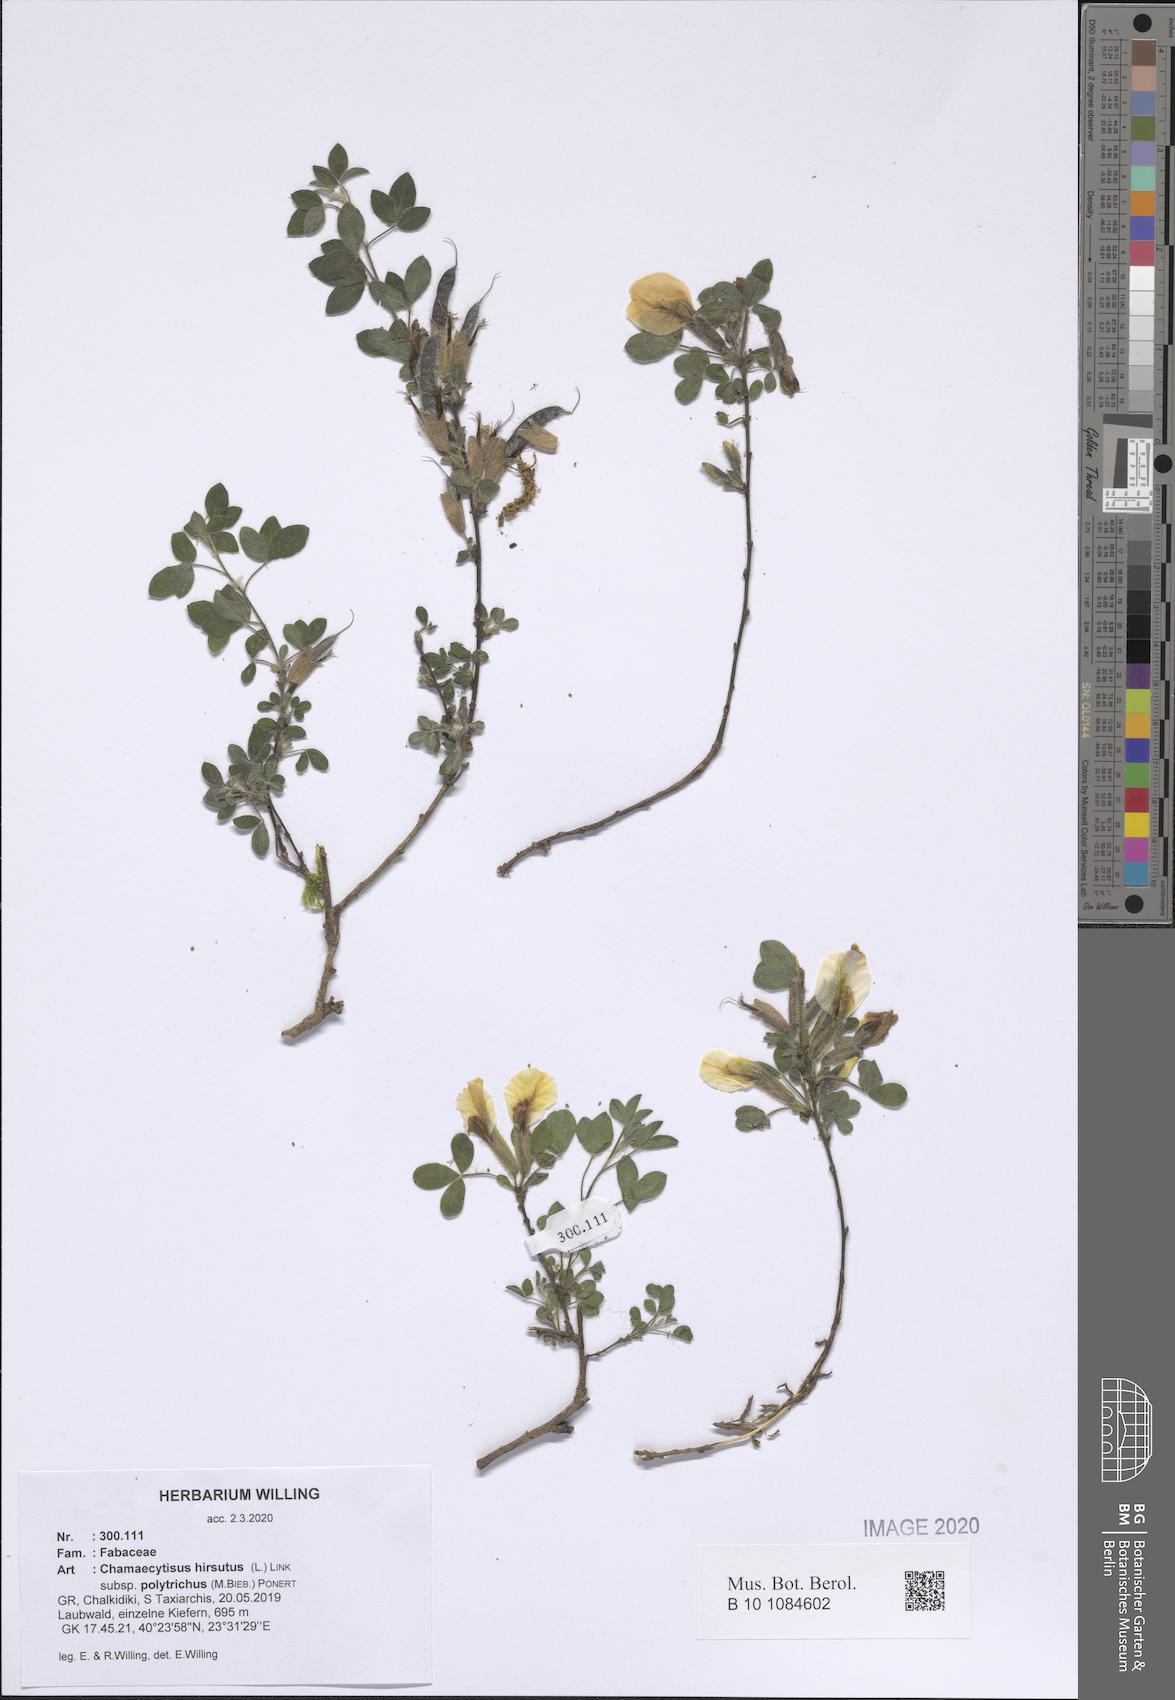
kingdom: Plantae
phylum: Tracheophyta
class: Magnoliopsida
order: Fabales
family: Fabaceae
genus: Chamaecytisus
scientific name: Chamaecytisus hirsutus
